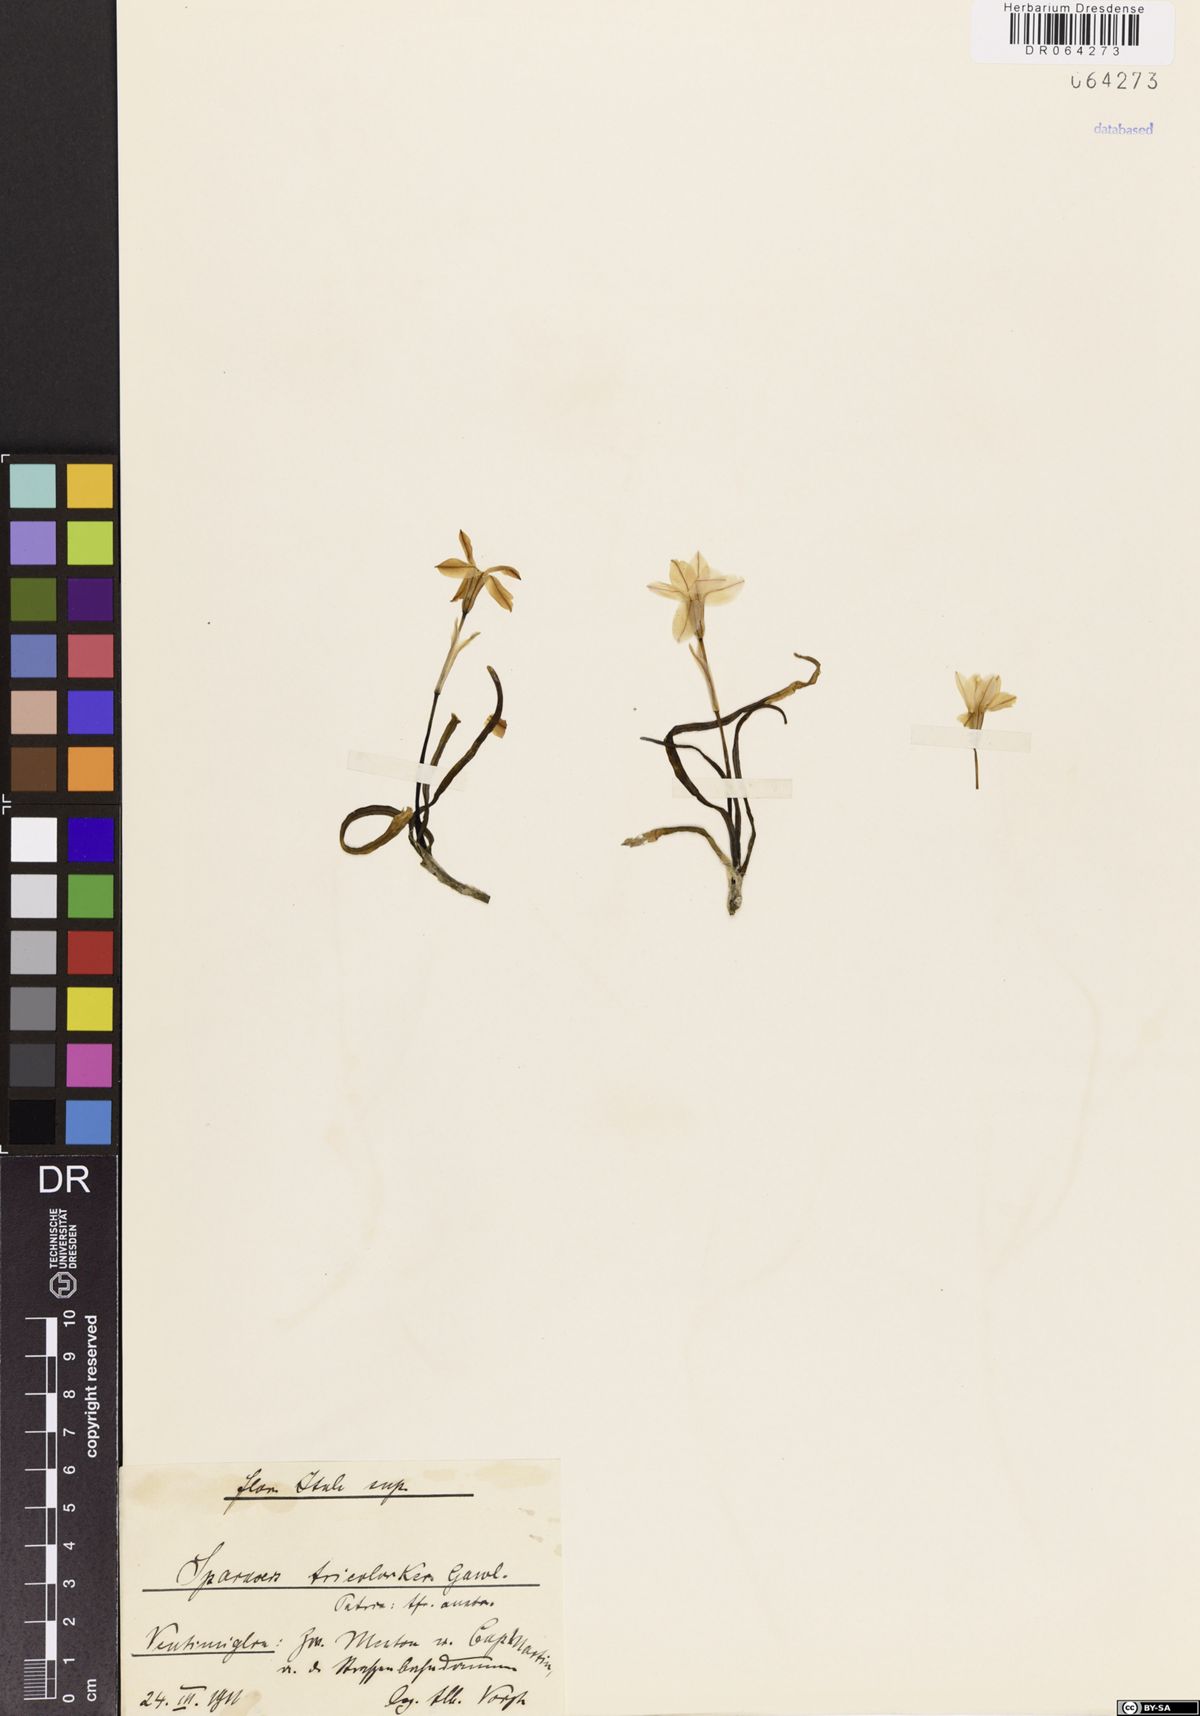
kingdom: Plantae
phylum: Tracheophyta
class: Liliopsida
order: Asparagales
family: Iridaceae
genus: Sparaxis
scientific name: Sparaxis tricolor
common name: Wandflower
